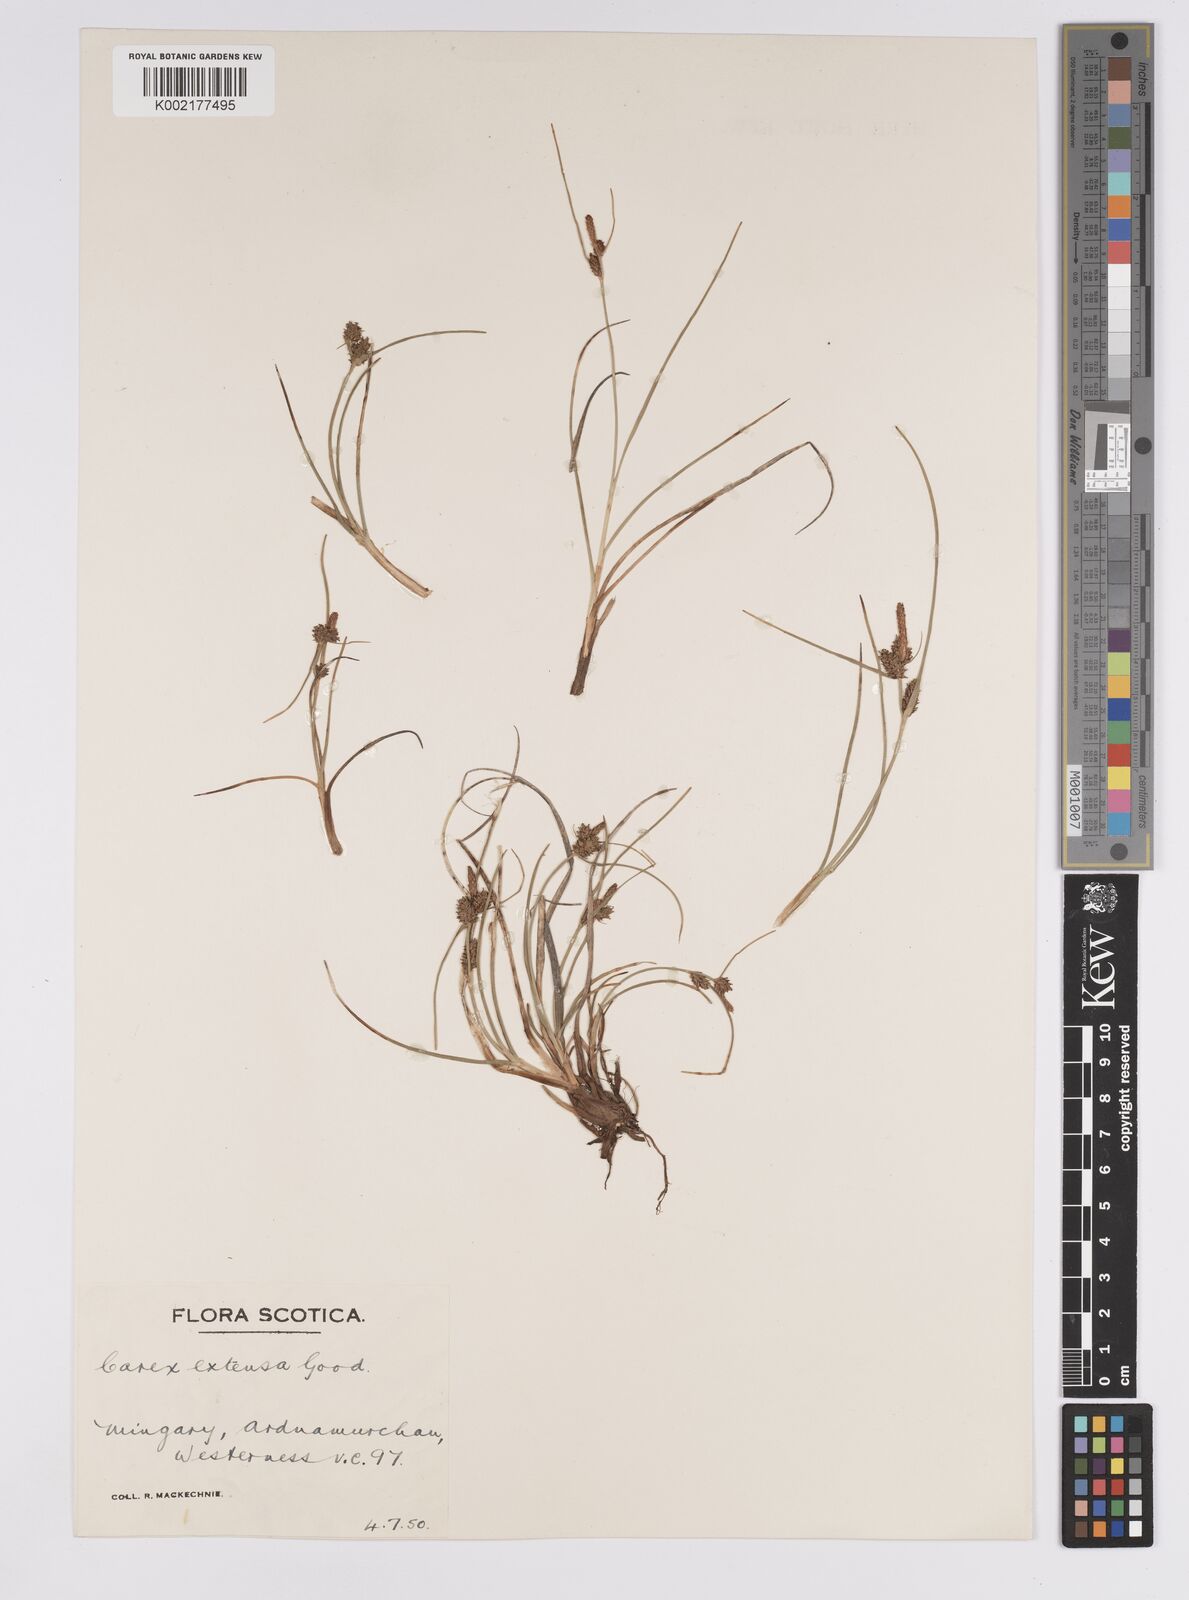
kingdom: Plantae
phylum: Tracheophyta
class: Liliopsida
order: Poales
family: Cyperaceae
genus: Carex
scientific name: Carex extensa
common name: Long-bracted sedge
